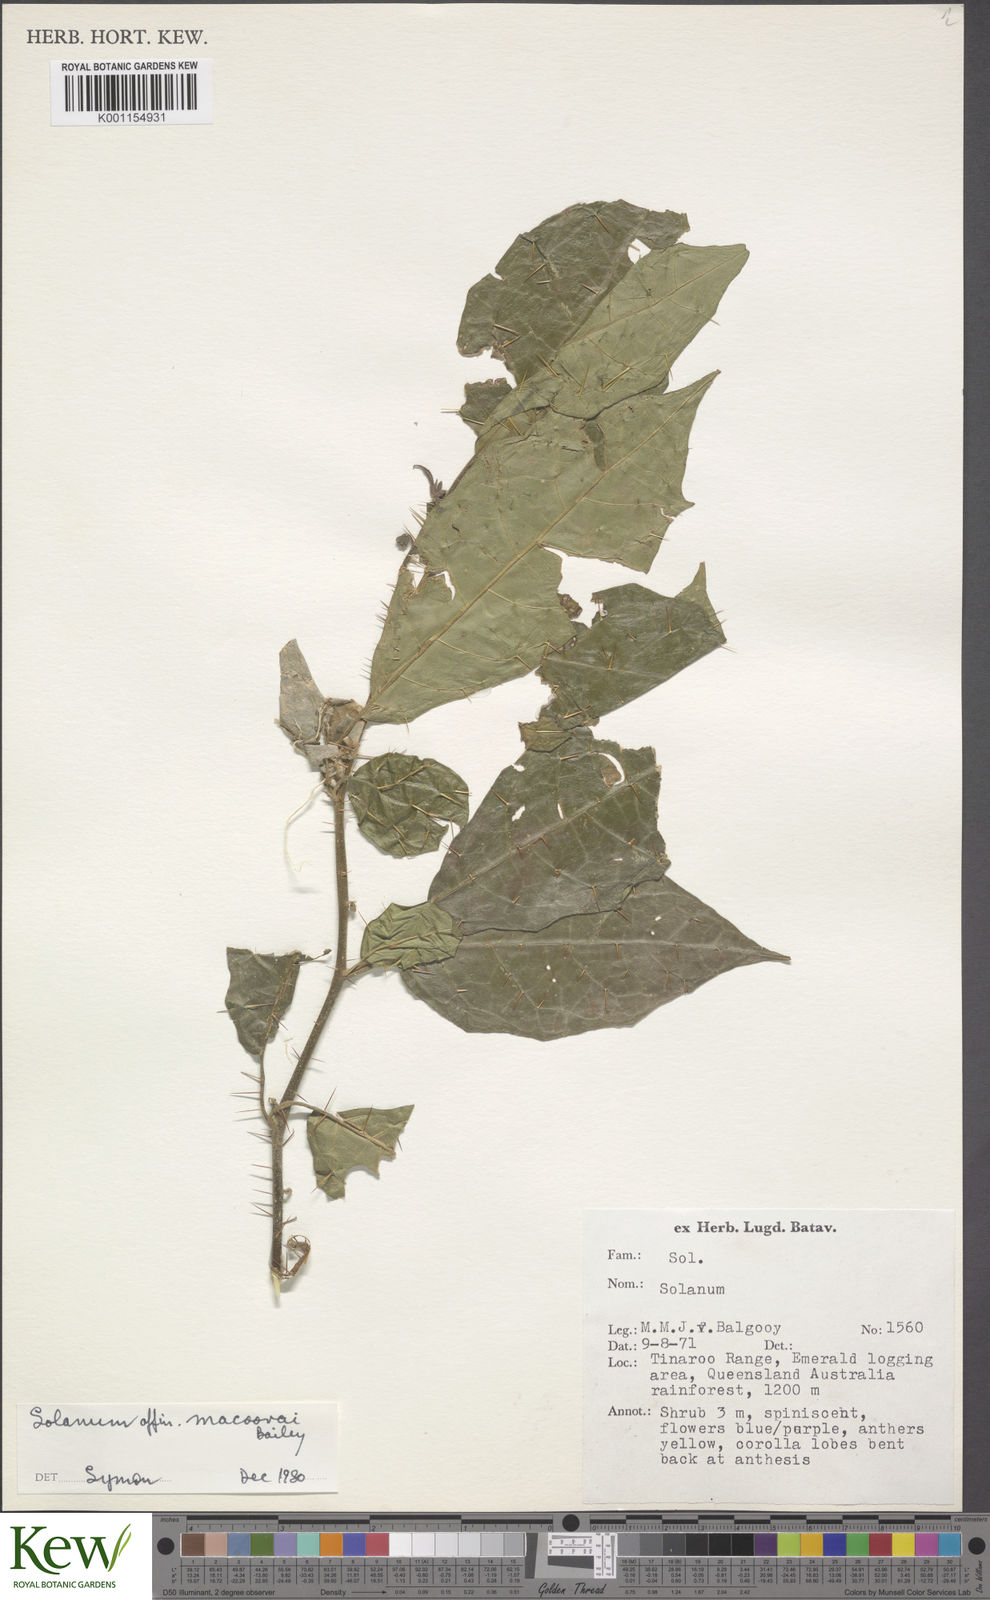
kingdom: Plantae
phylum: Tracheophyta
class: Magnoliopsida
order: Solanales
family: Solanaceae
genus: Solanum
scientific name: Solanum macoorai
